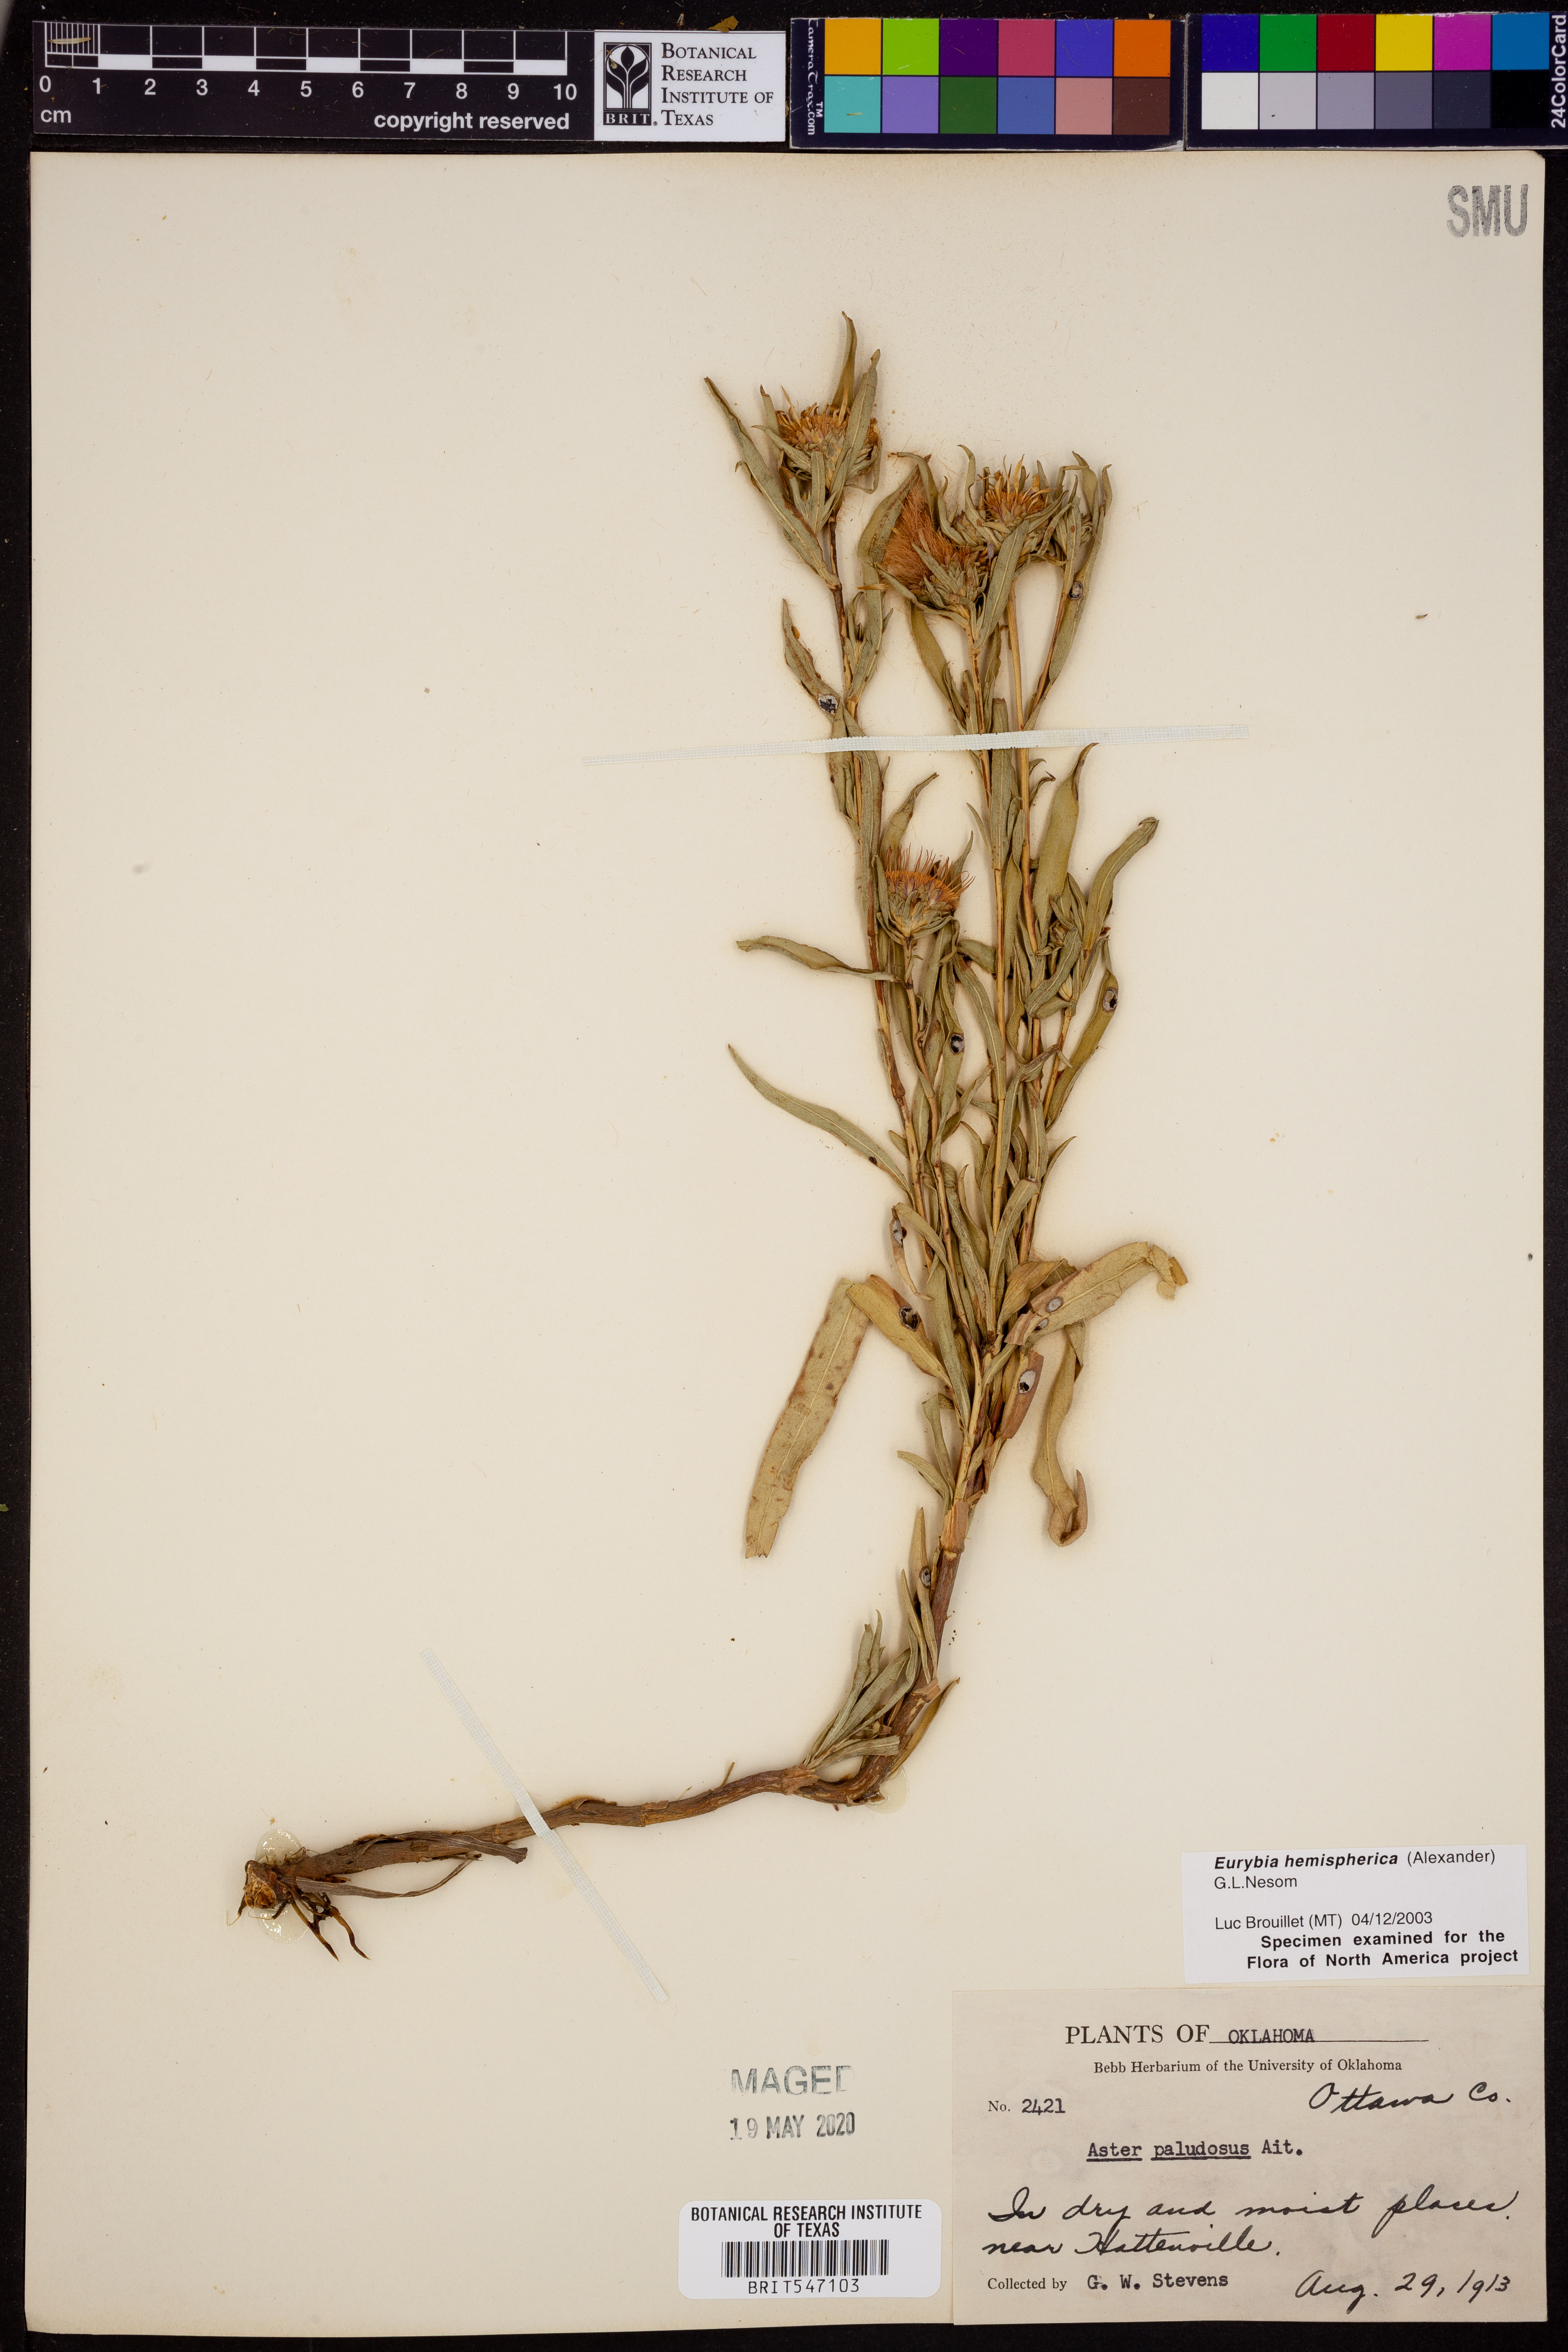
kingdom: Plantae
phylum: Tracheophyta
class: Magnoliopsida
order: Asterales
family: Asteraceae
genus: Eurybia
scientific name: Eurybia hemispherica
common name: Showy aster
